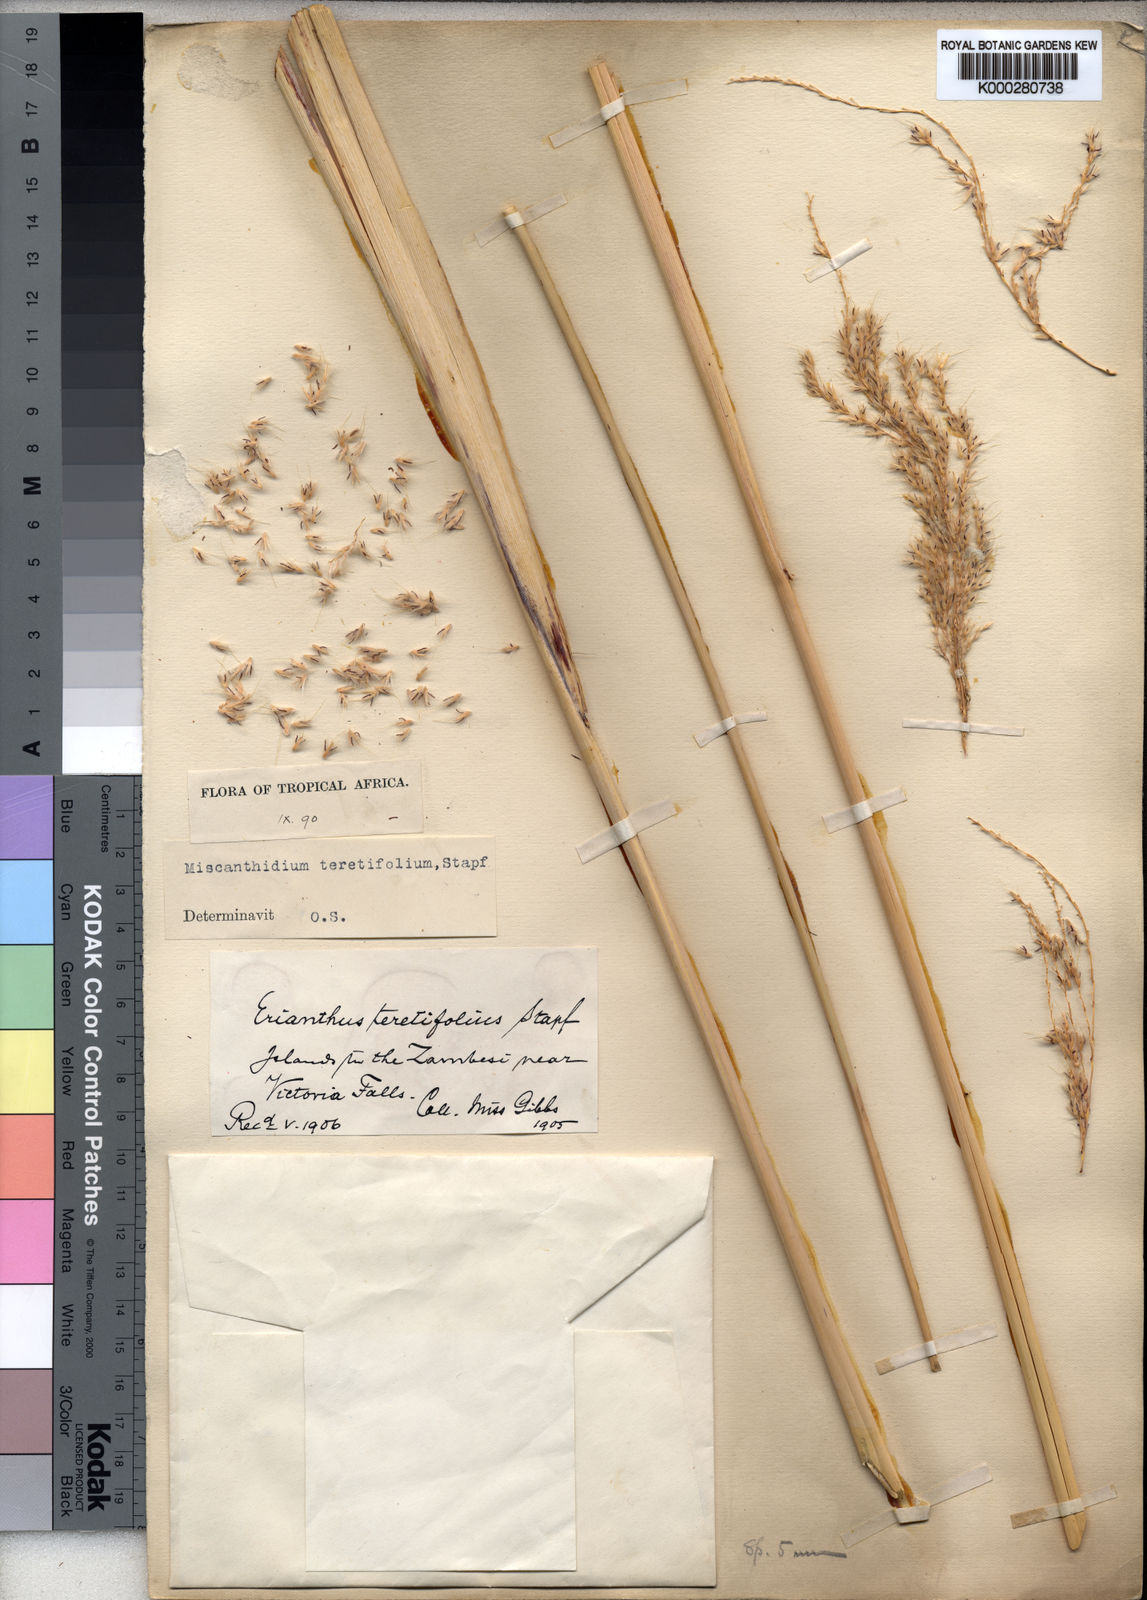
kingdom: Plantae
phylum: Tracheophyta
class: Liliopsida
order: Poales
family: Poaceae
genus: Miscanthidium
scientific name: Miscanthidium junceum
